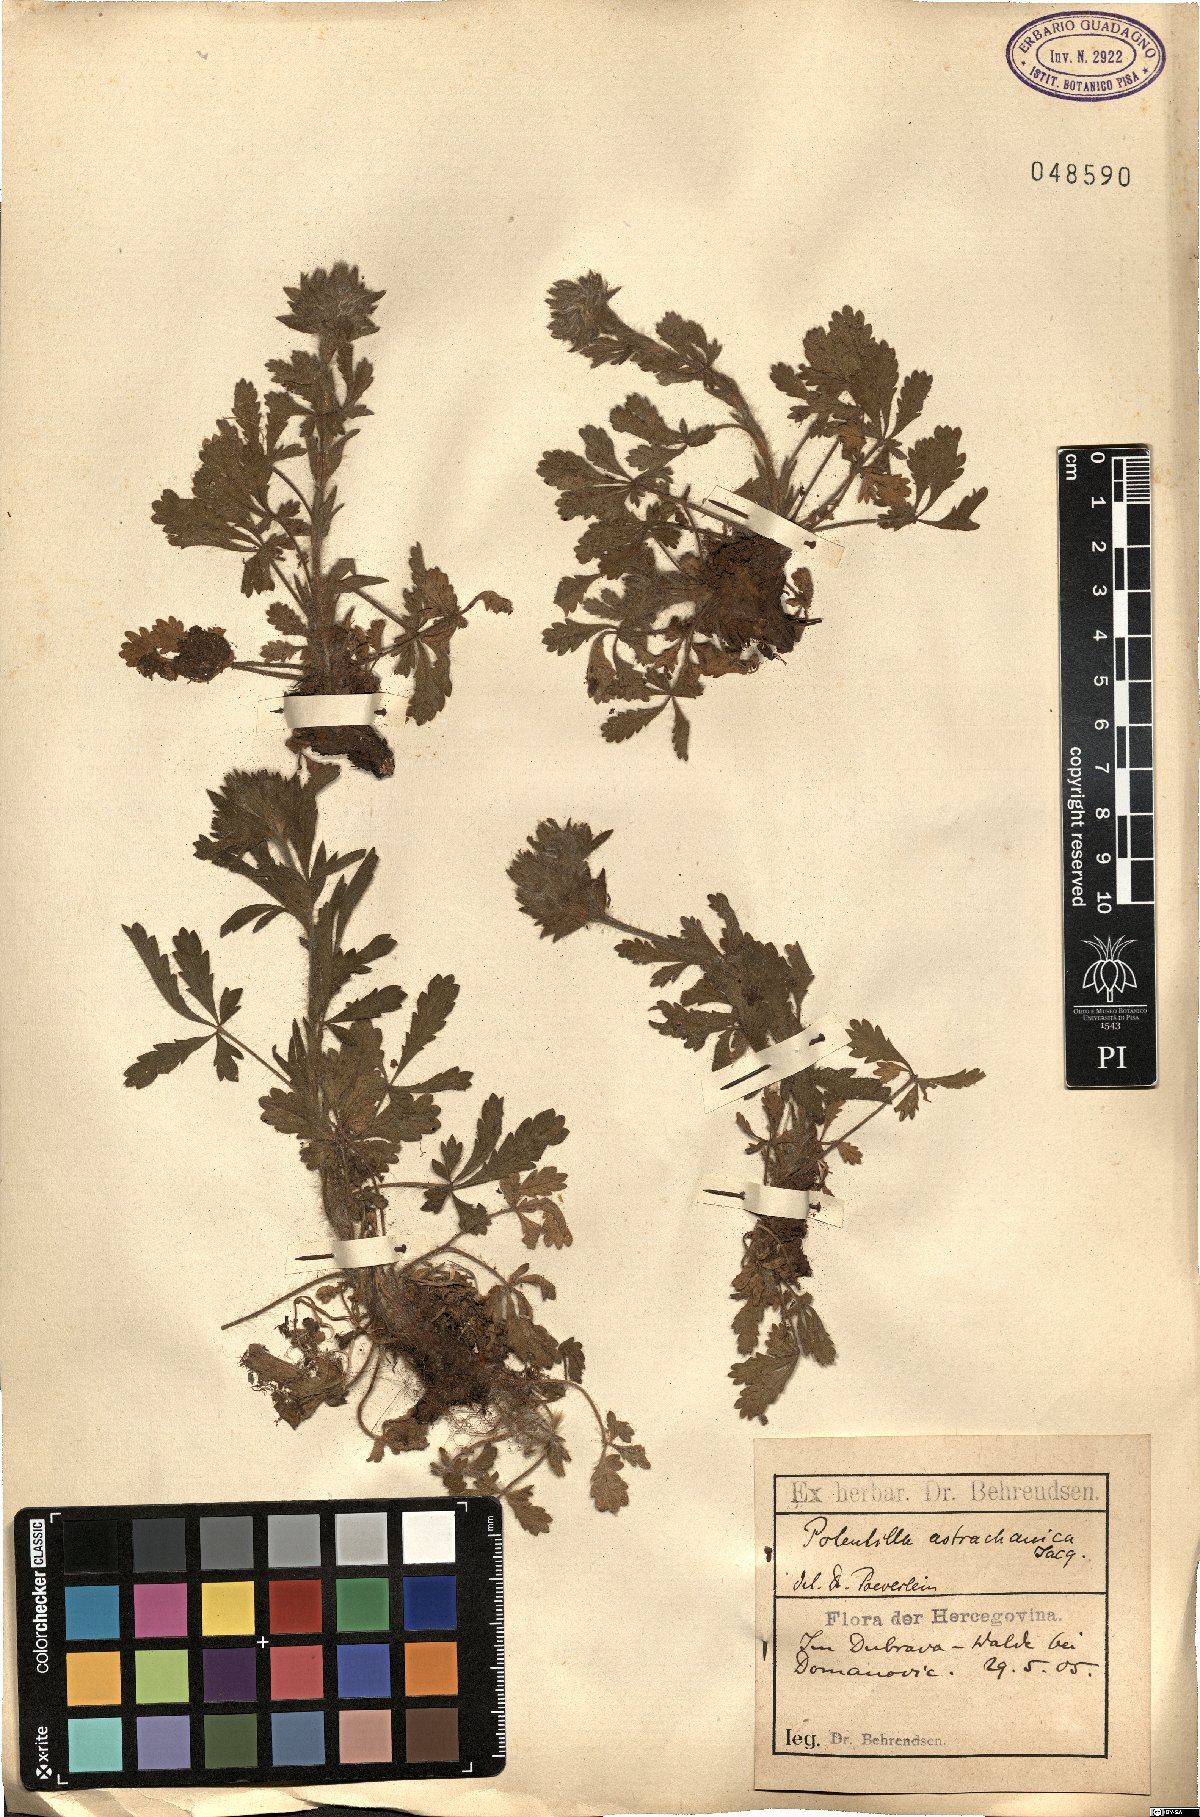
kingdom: Plantae
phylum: Tracheophyta
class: Magnoliopsida
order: Rosales
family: Rosaceae
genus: Potentilla
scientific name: Potentilla astracanica
